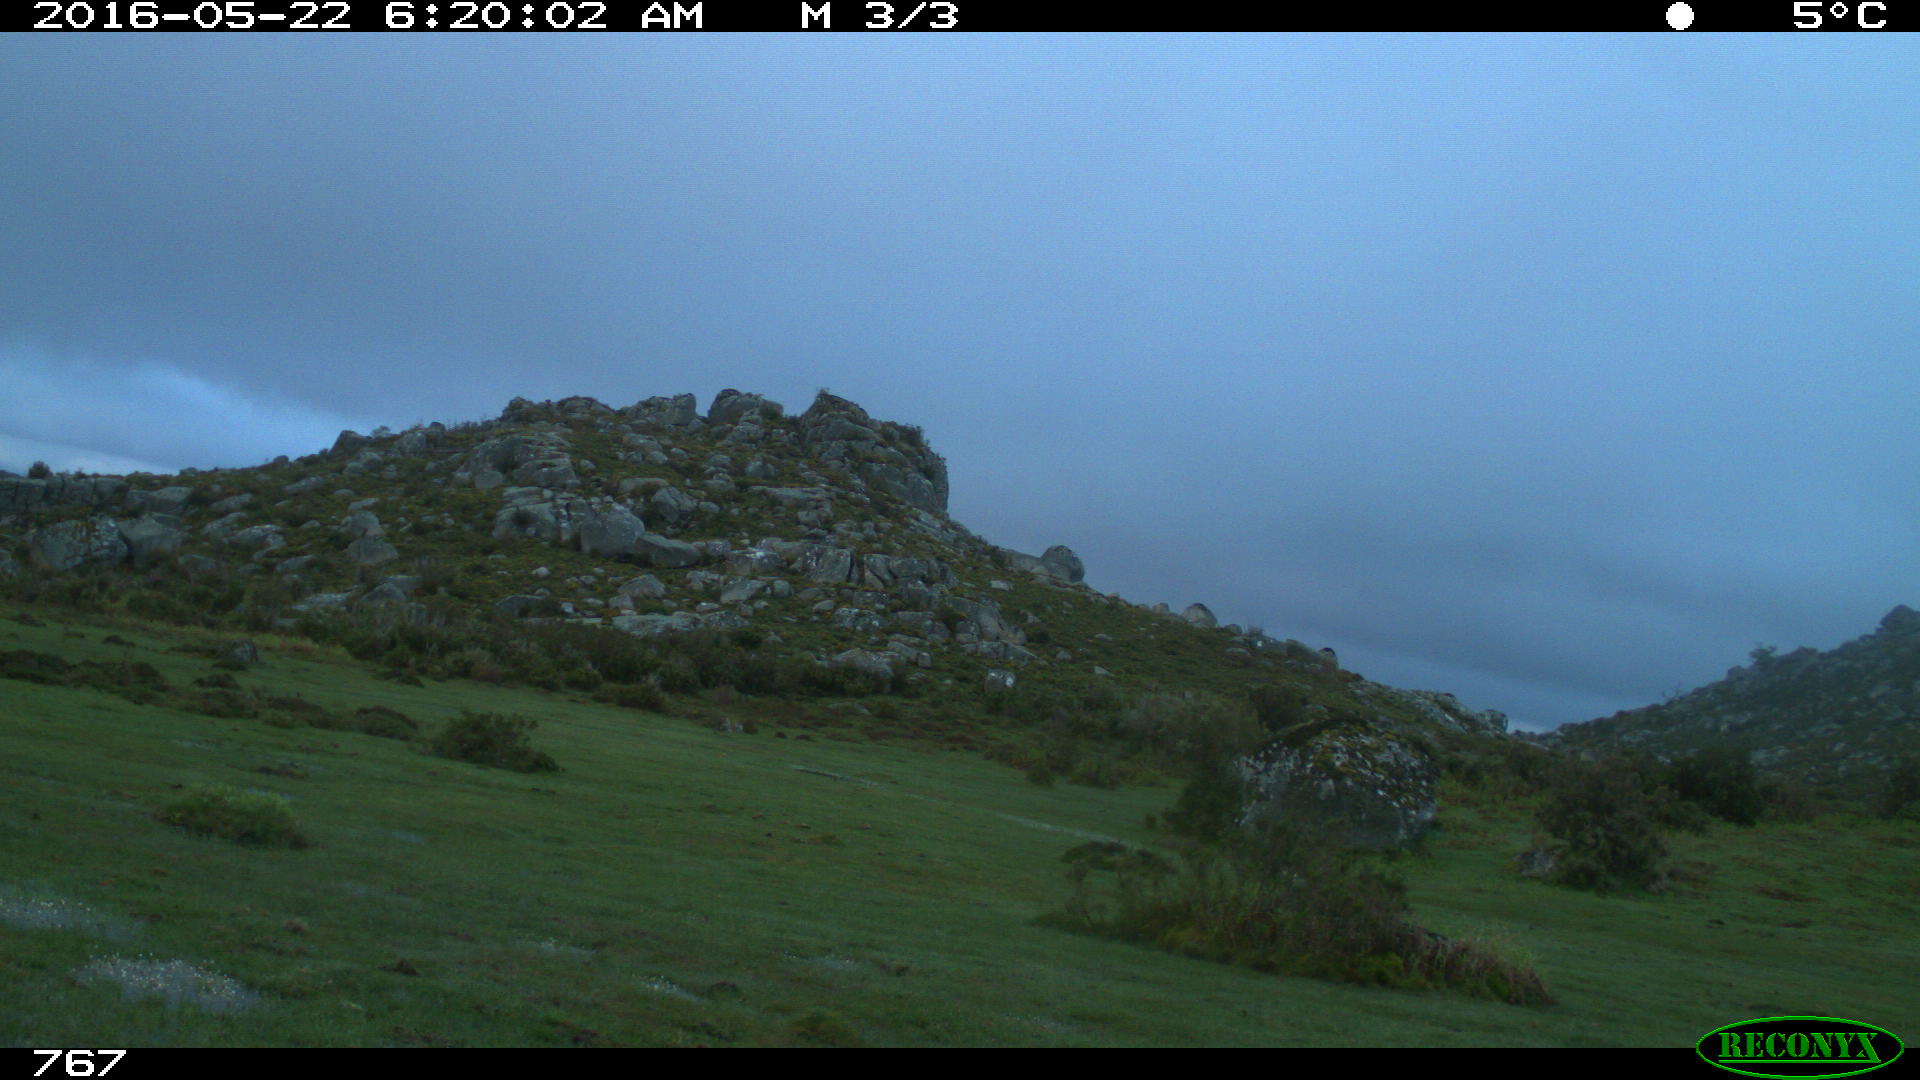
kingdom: Animalia
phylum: Chordata
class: Mammalia
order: Artiodactyla
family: Bovidae
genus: Bos
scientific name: Bos taurus
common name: Domesticated cattle
